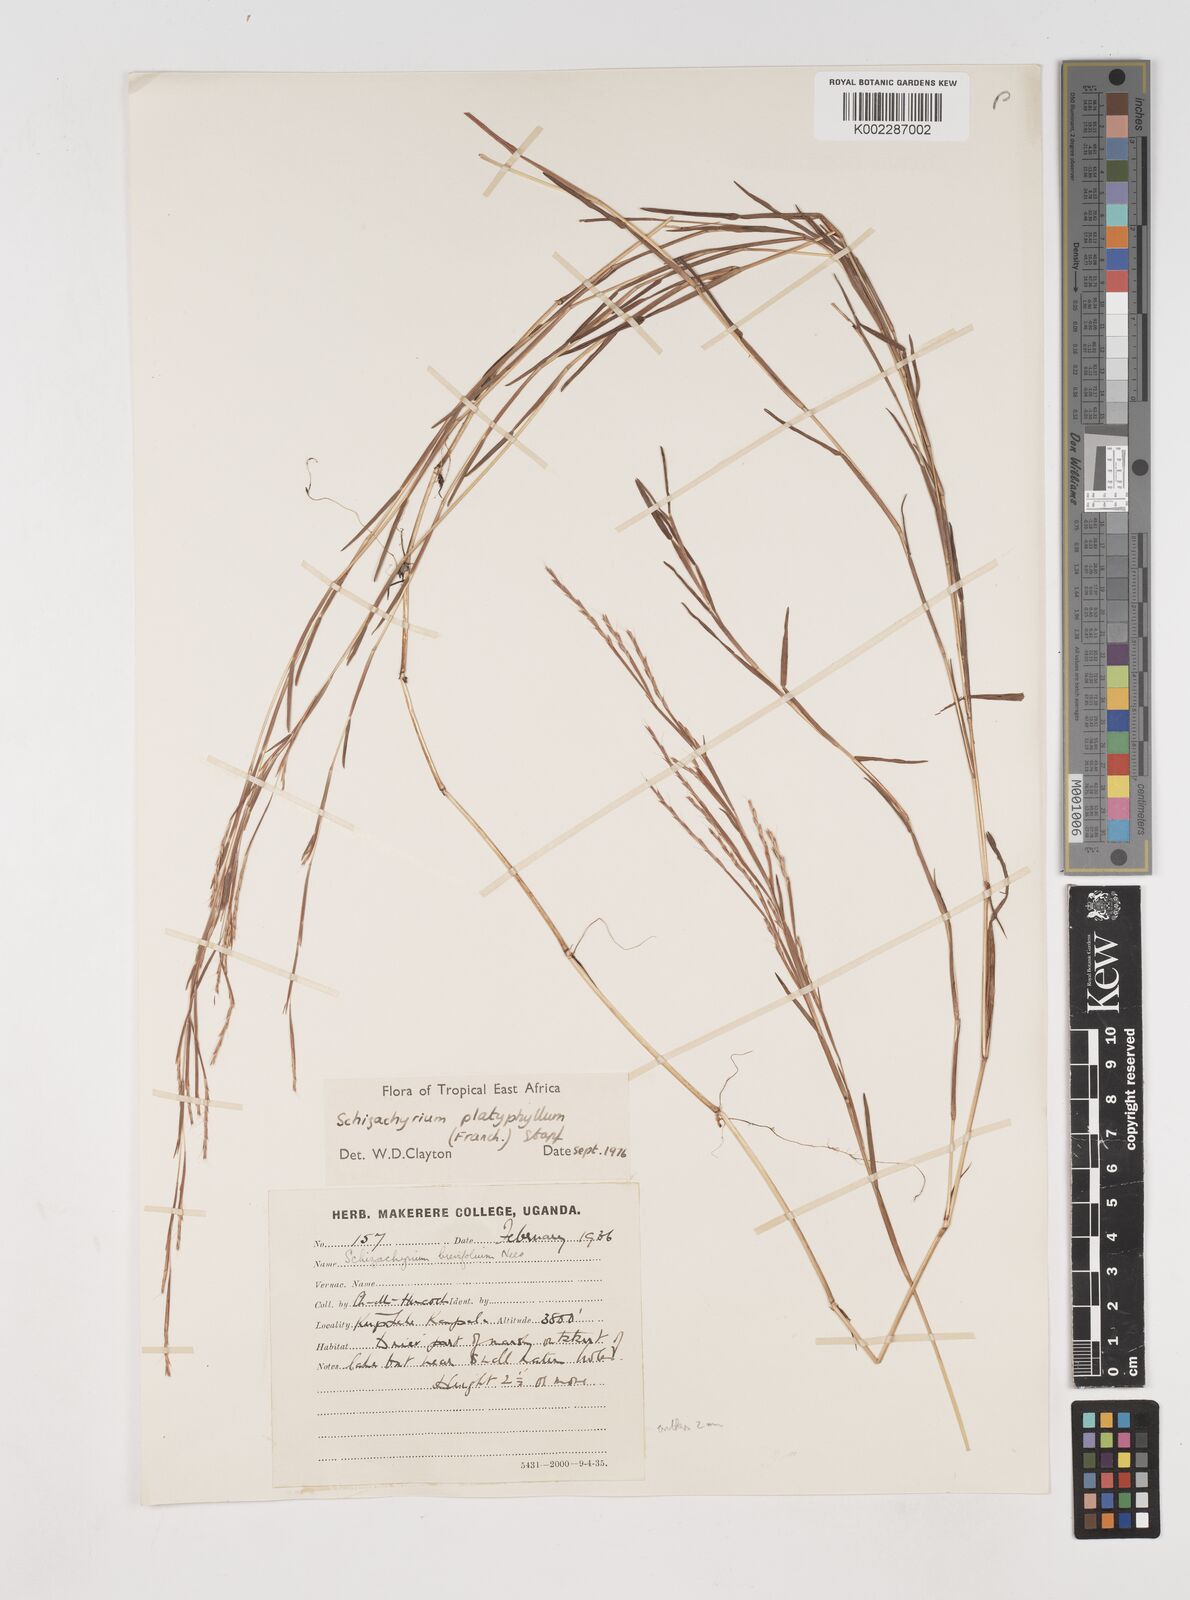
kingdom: Plantae
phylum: Tracheophyta
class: Liliopsida
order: Poales
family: Poaceae
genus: Schizachyrium
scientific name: Schizachyrium platyphyllum
